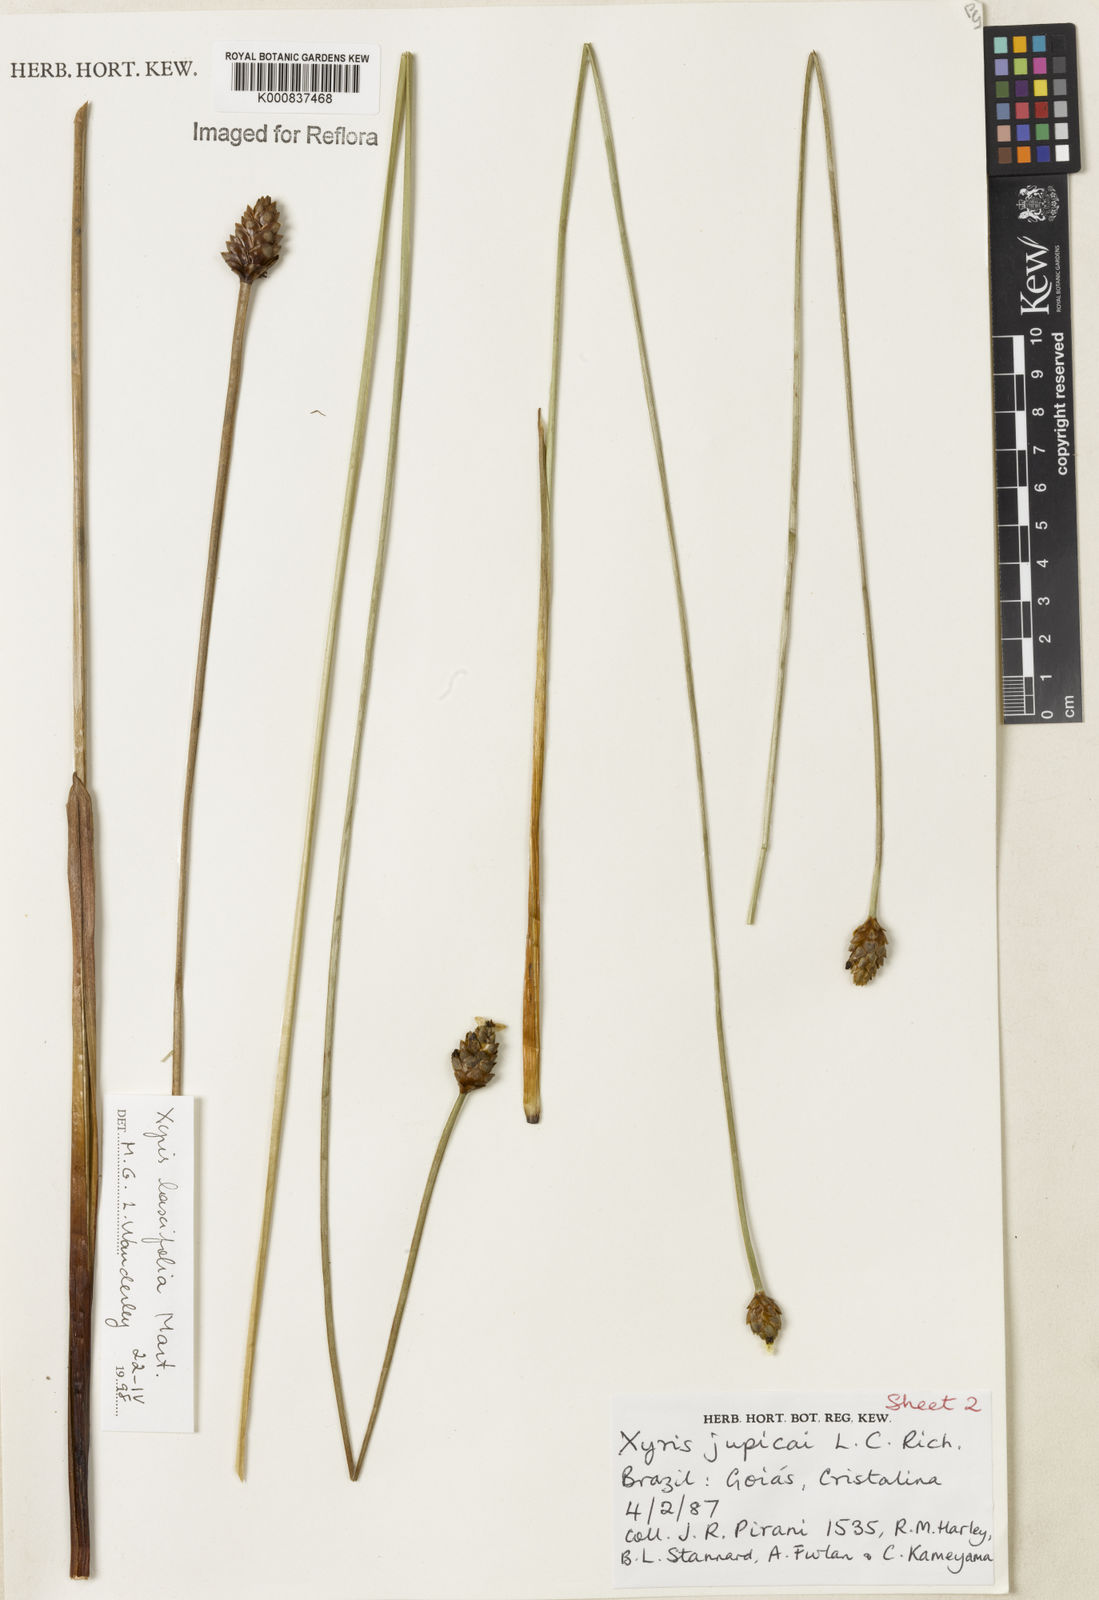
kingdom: Plantae
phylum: Tracheophyta
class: Liliopsida
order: Poales
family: Xyridaceae
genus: Xyris
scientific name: Xyris jupicai
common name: Richard's yelloweyed grass
